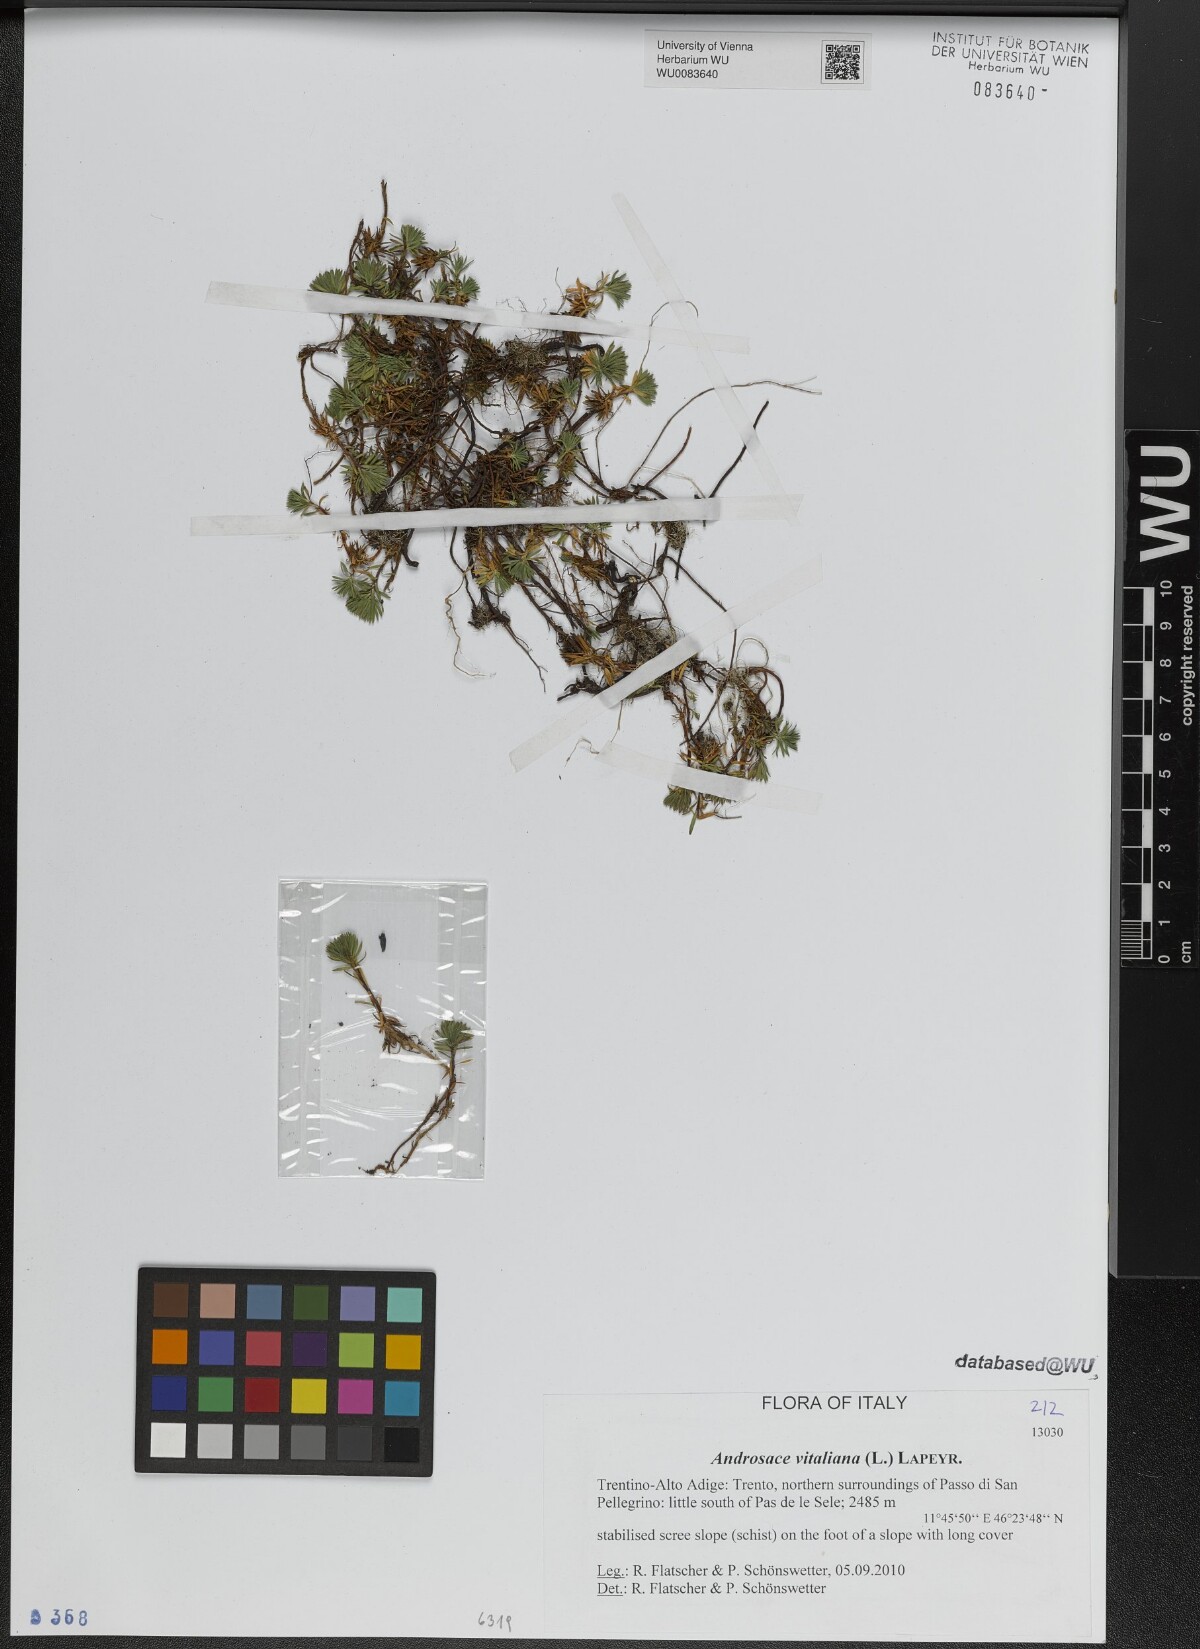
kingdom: Plantae
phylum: Tracheophyta
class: Magnoliopsida
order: Ericales
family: Primulaceae
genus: Androsace
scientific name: Androsace vitaliana
